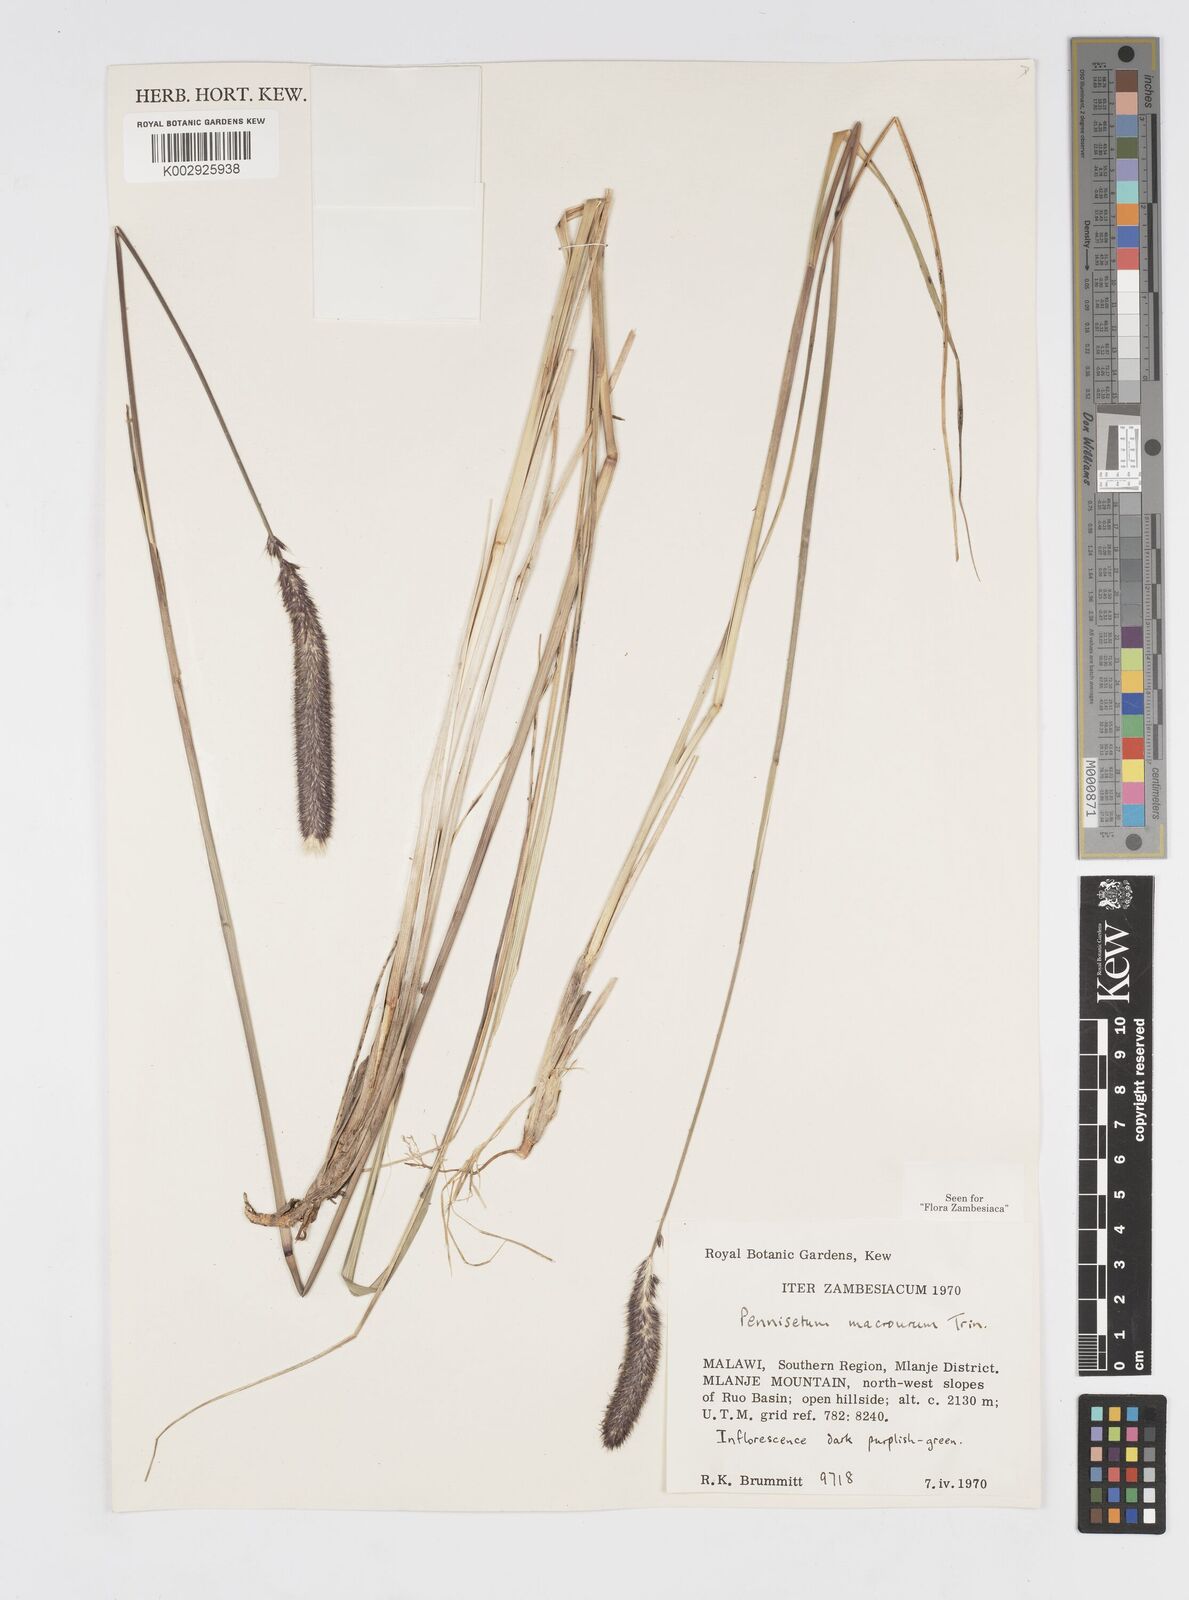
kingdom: Plantae
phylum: Tracheophyta
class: Liliopsida
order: Poales
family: Poaceae
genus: Cenchrus
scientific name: Cenchrus caudatus
